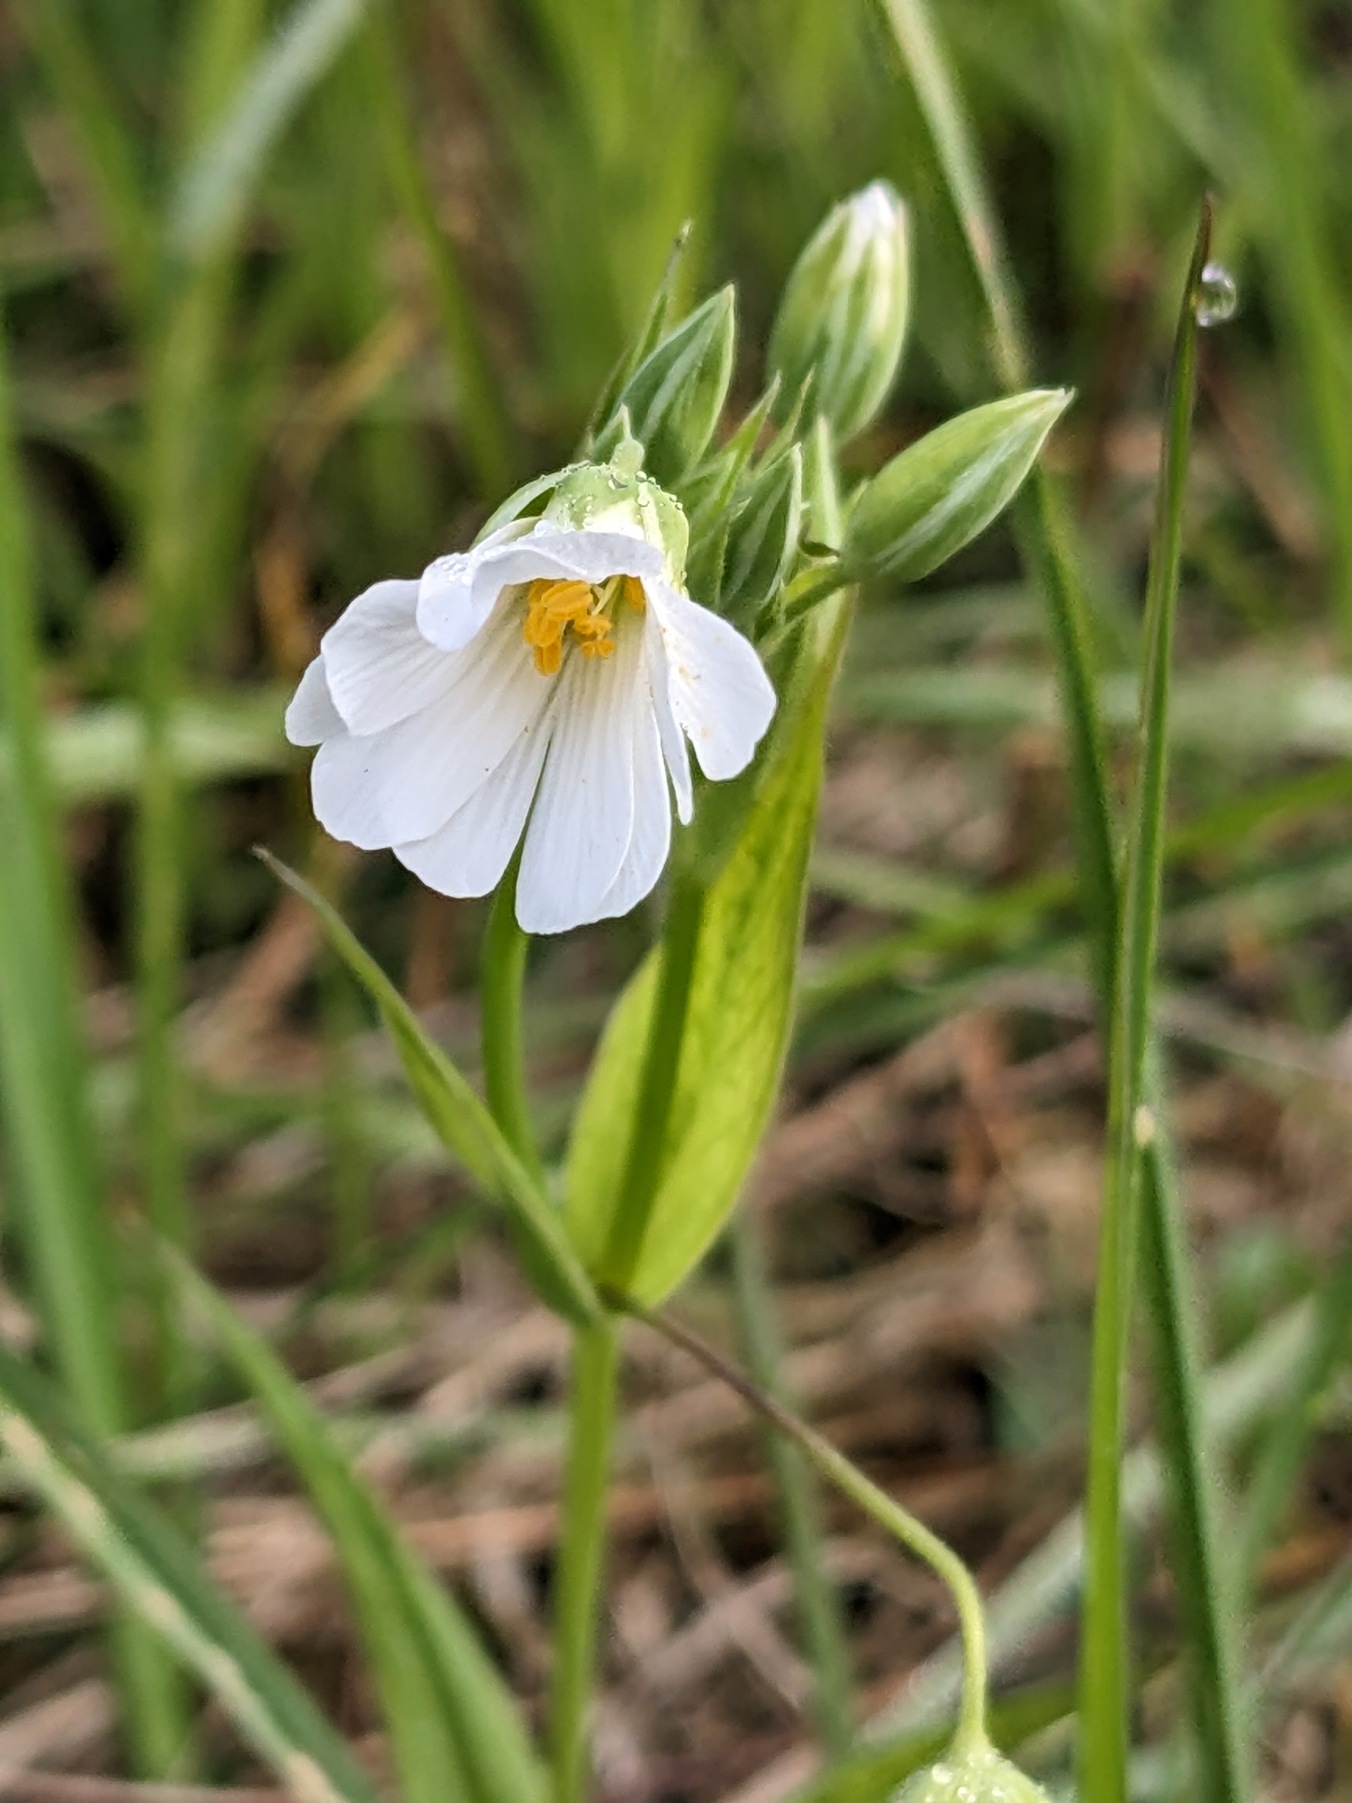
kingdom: Plantae
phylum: Tracheophyta
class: Magnoliopsida
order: Caryophyllales
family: Caryophyllaceae
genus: Rabelera
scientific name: Rabelera holostea
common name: Stor fladstjerne
